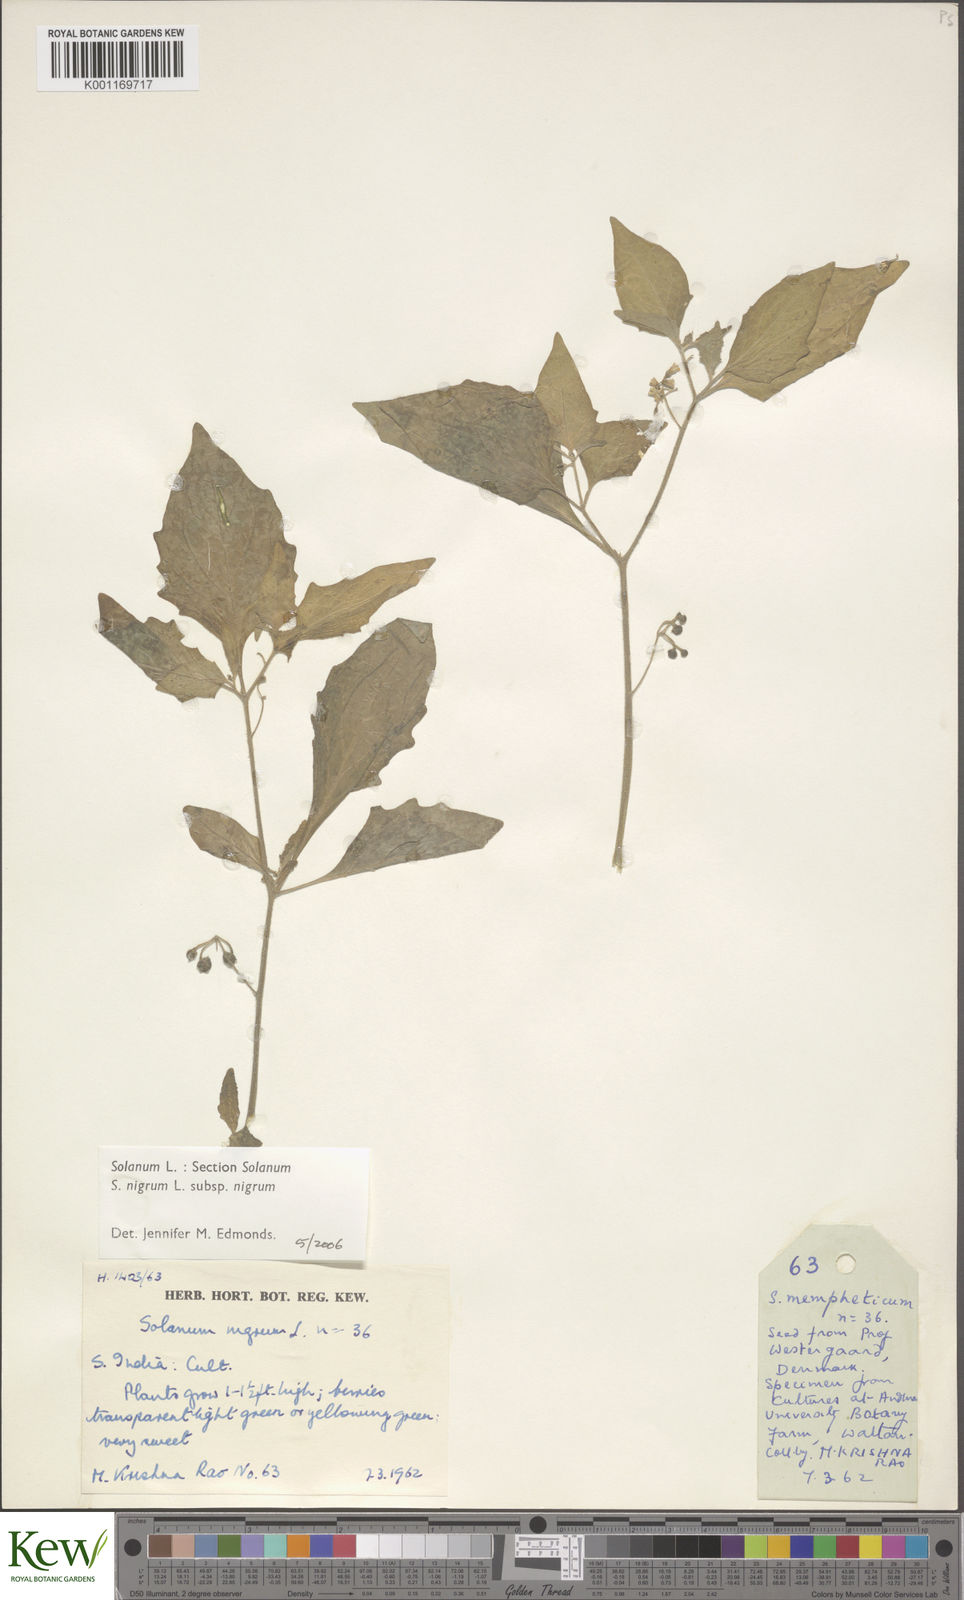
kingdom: Plantae
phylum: Tracheophyta
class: Magnoliopsida
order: Solanales
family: Solanaceae
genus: Solanum
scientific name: Solanum nigrum
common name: Black nightshade
